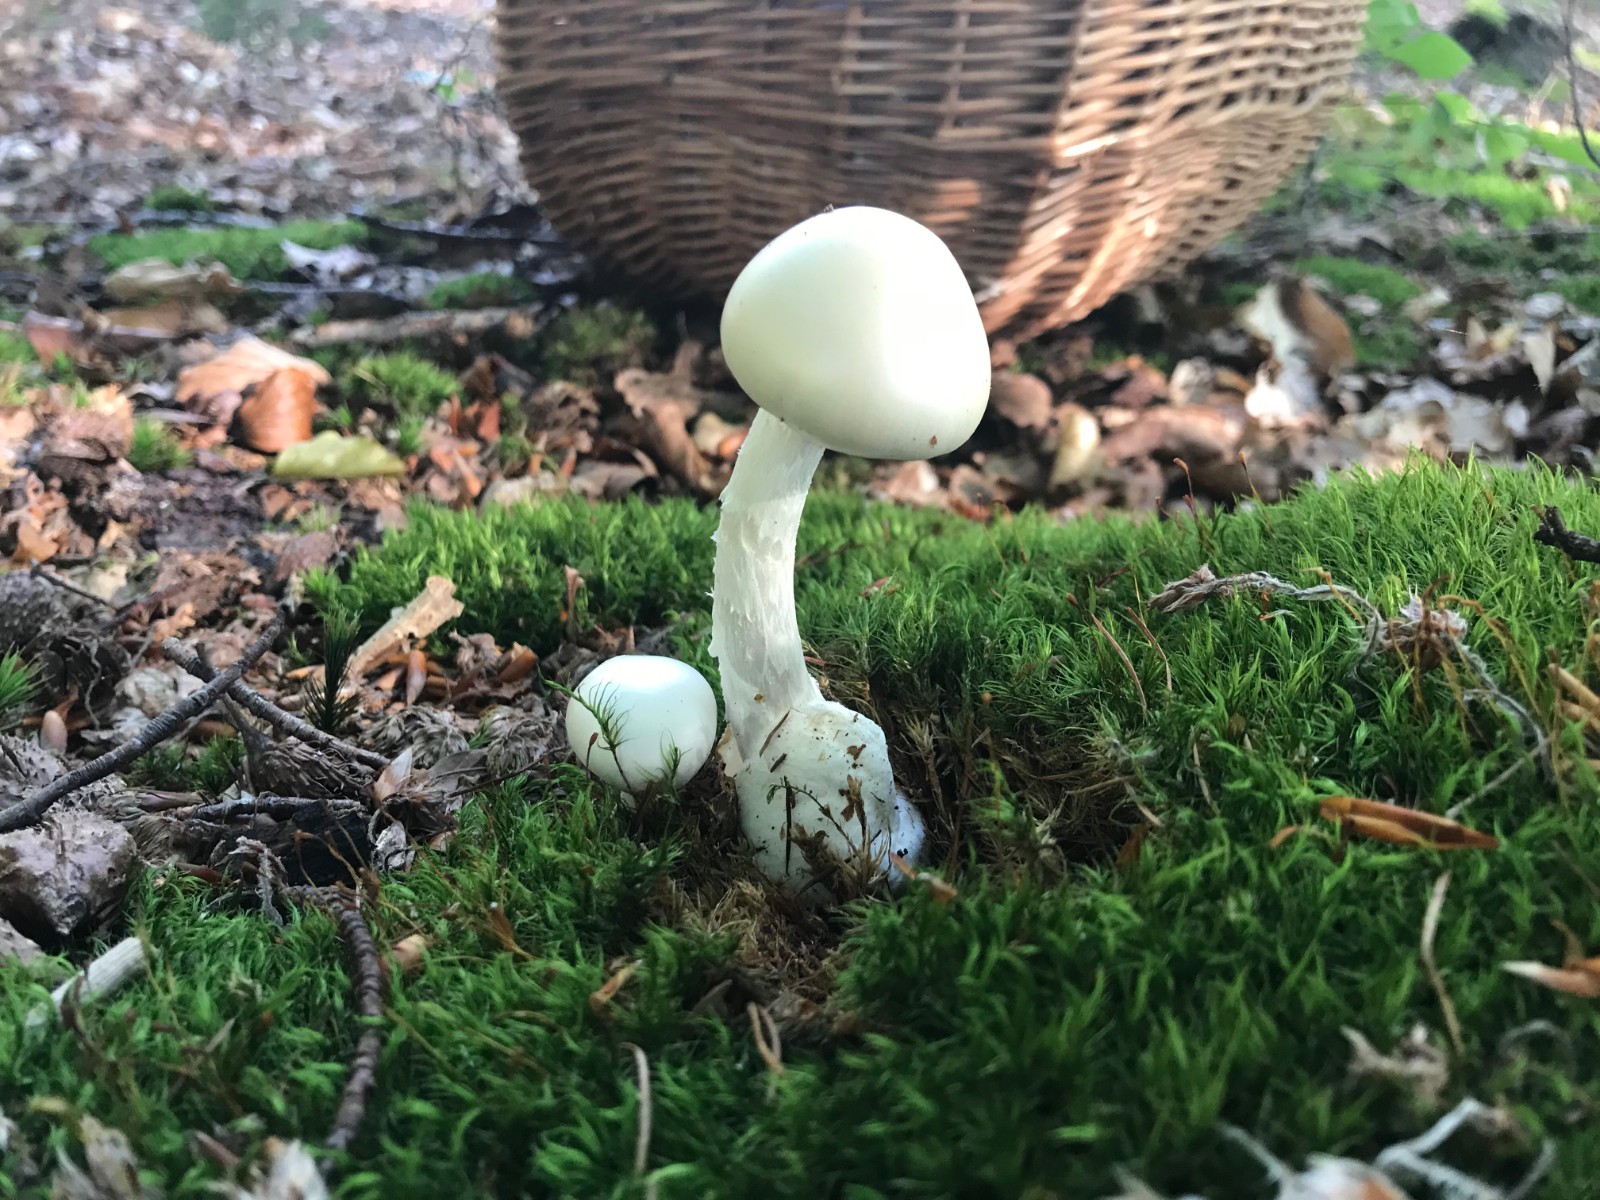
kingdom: Fungi
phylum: Basidiomycota
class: Agaricomycetes
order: Agaricales
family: Amanitaceae
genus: Amanita
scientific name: Amanita virosa
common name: snehvid fluesvamp
